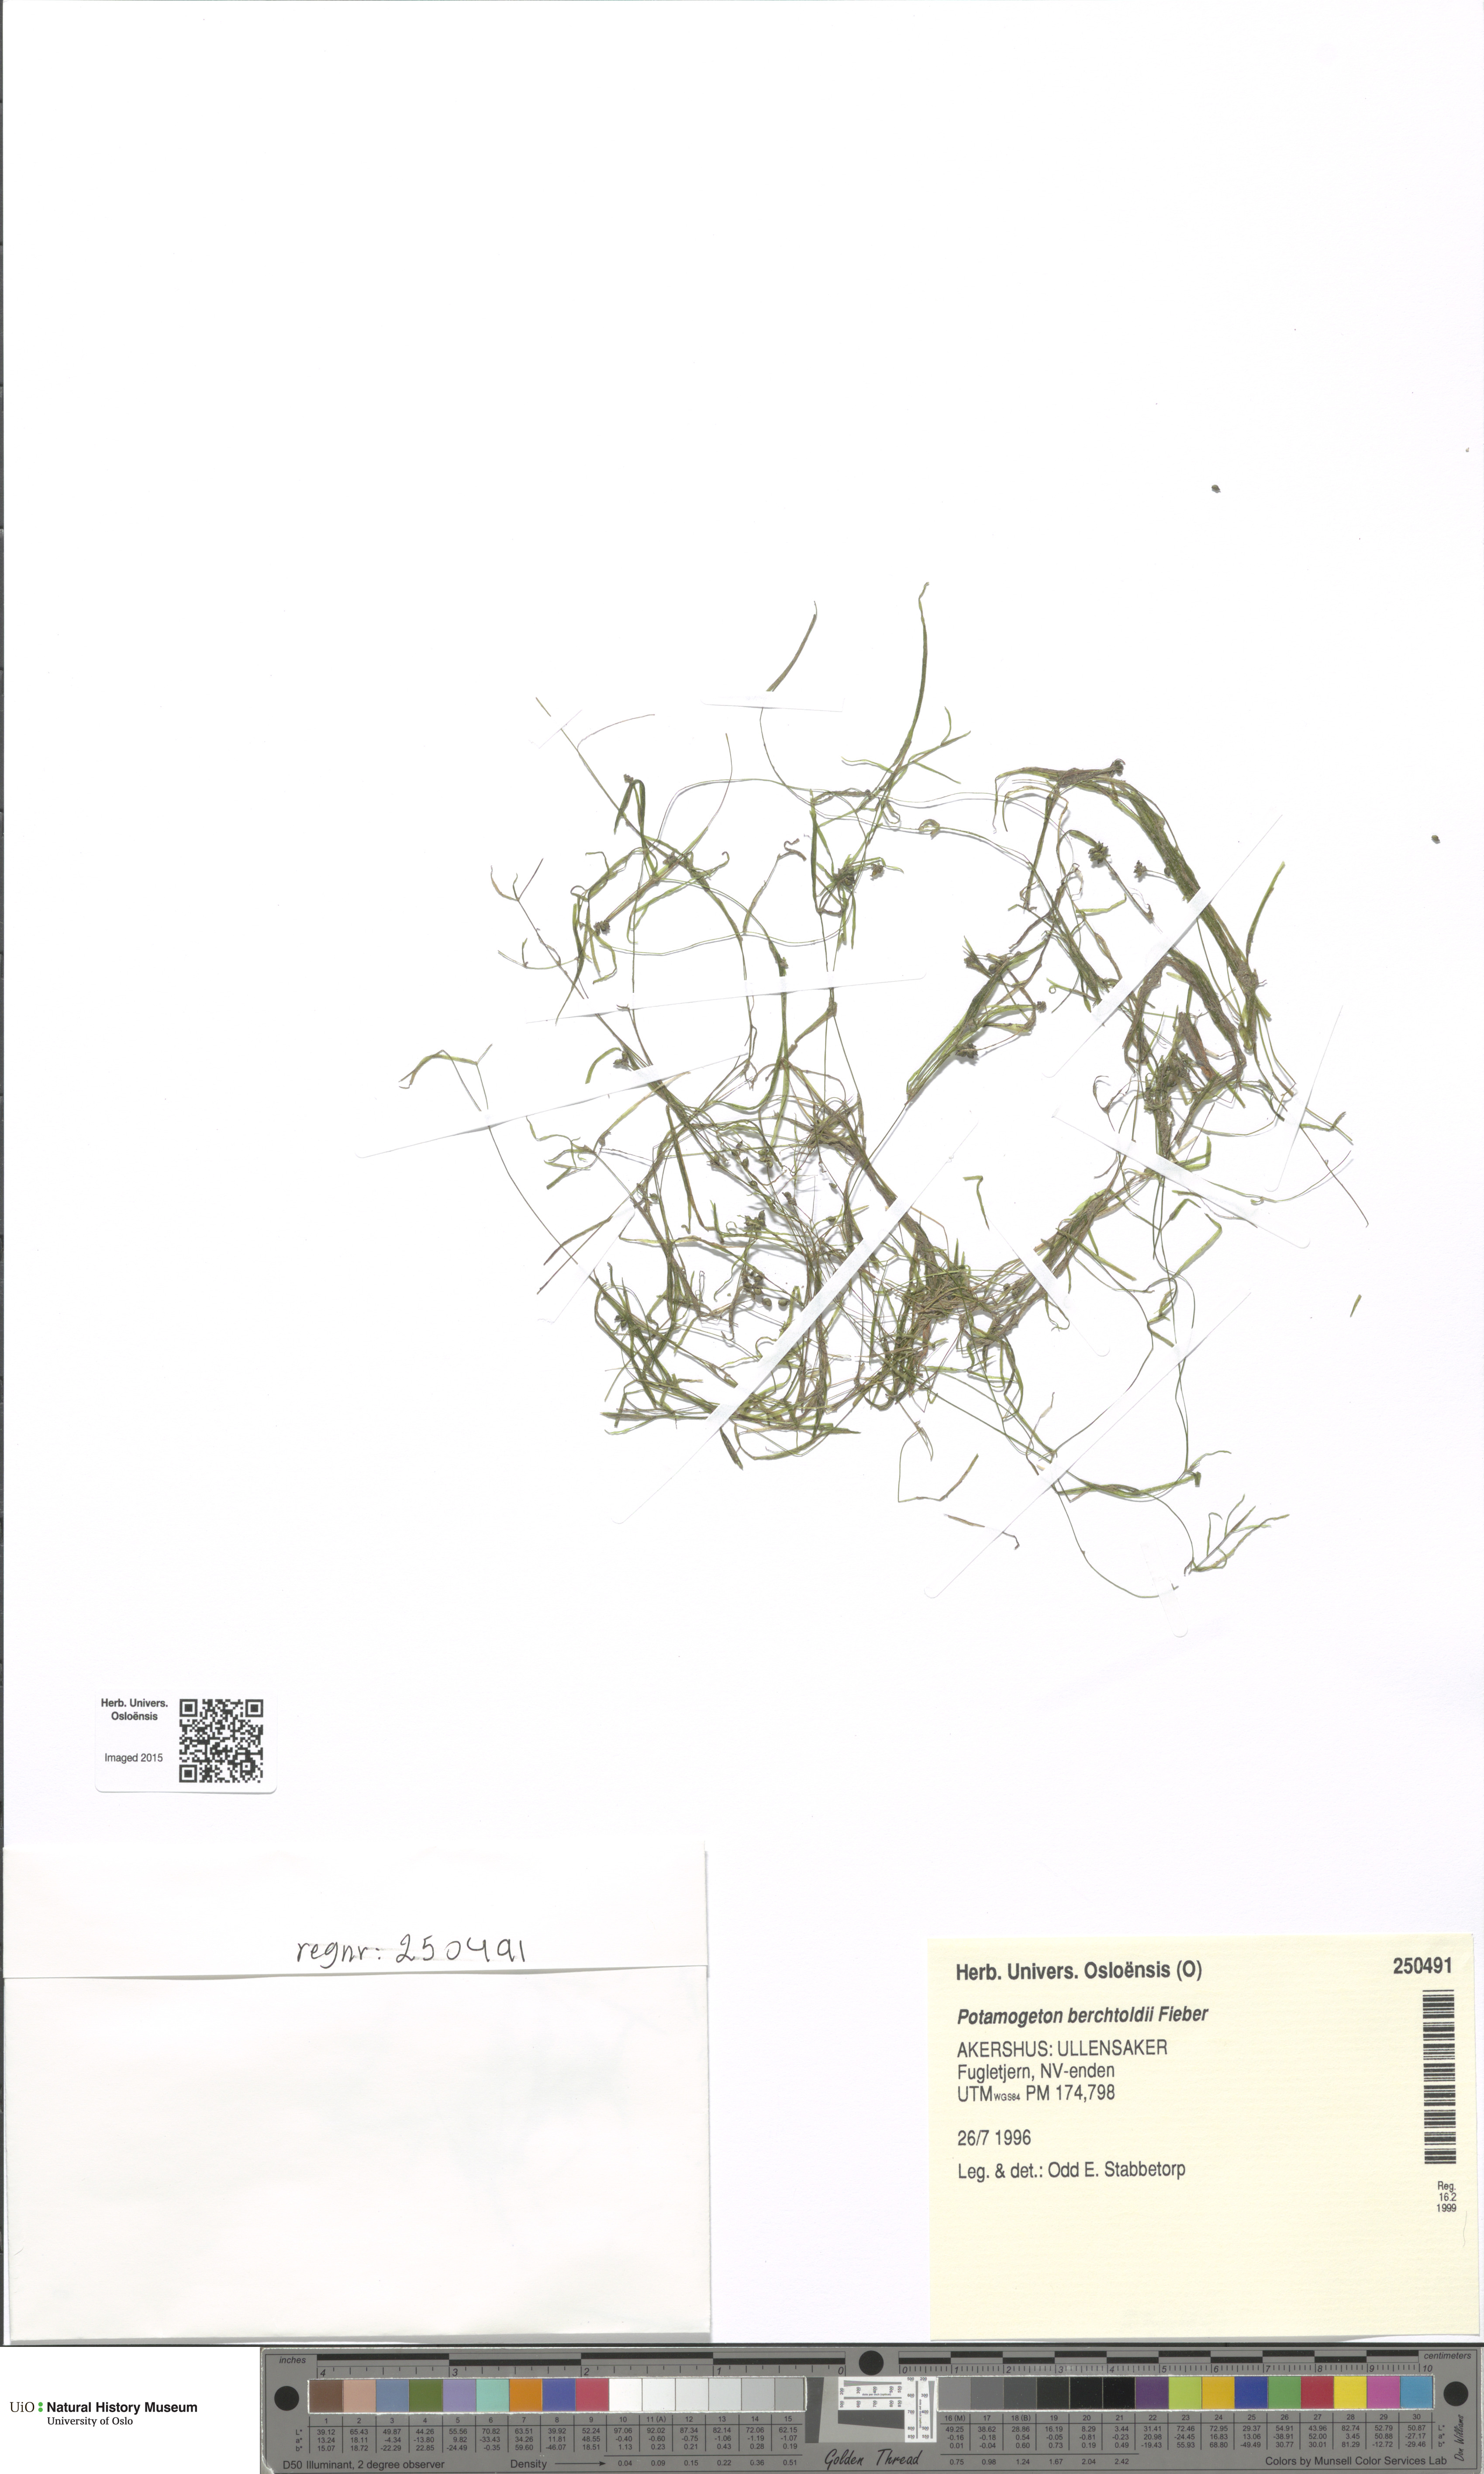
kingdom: Plantae
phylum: Tracheophyta
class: Liliopsida
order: Alismatales
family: Potamogetonaceae
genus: Potamogeton
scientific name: Potamogeton berchtoldii
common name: Small pondweed
